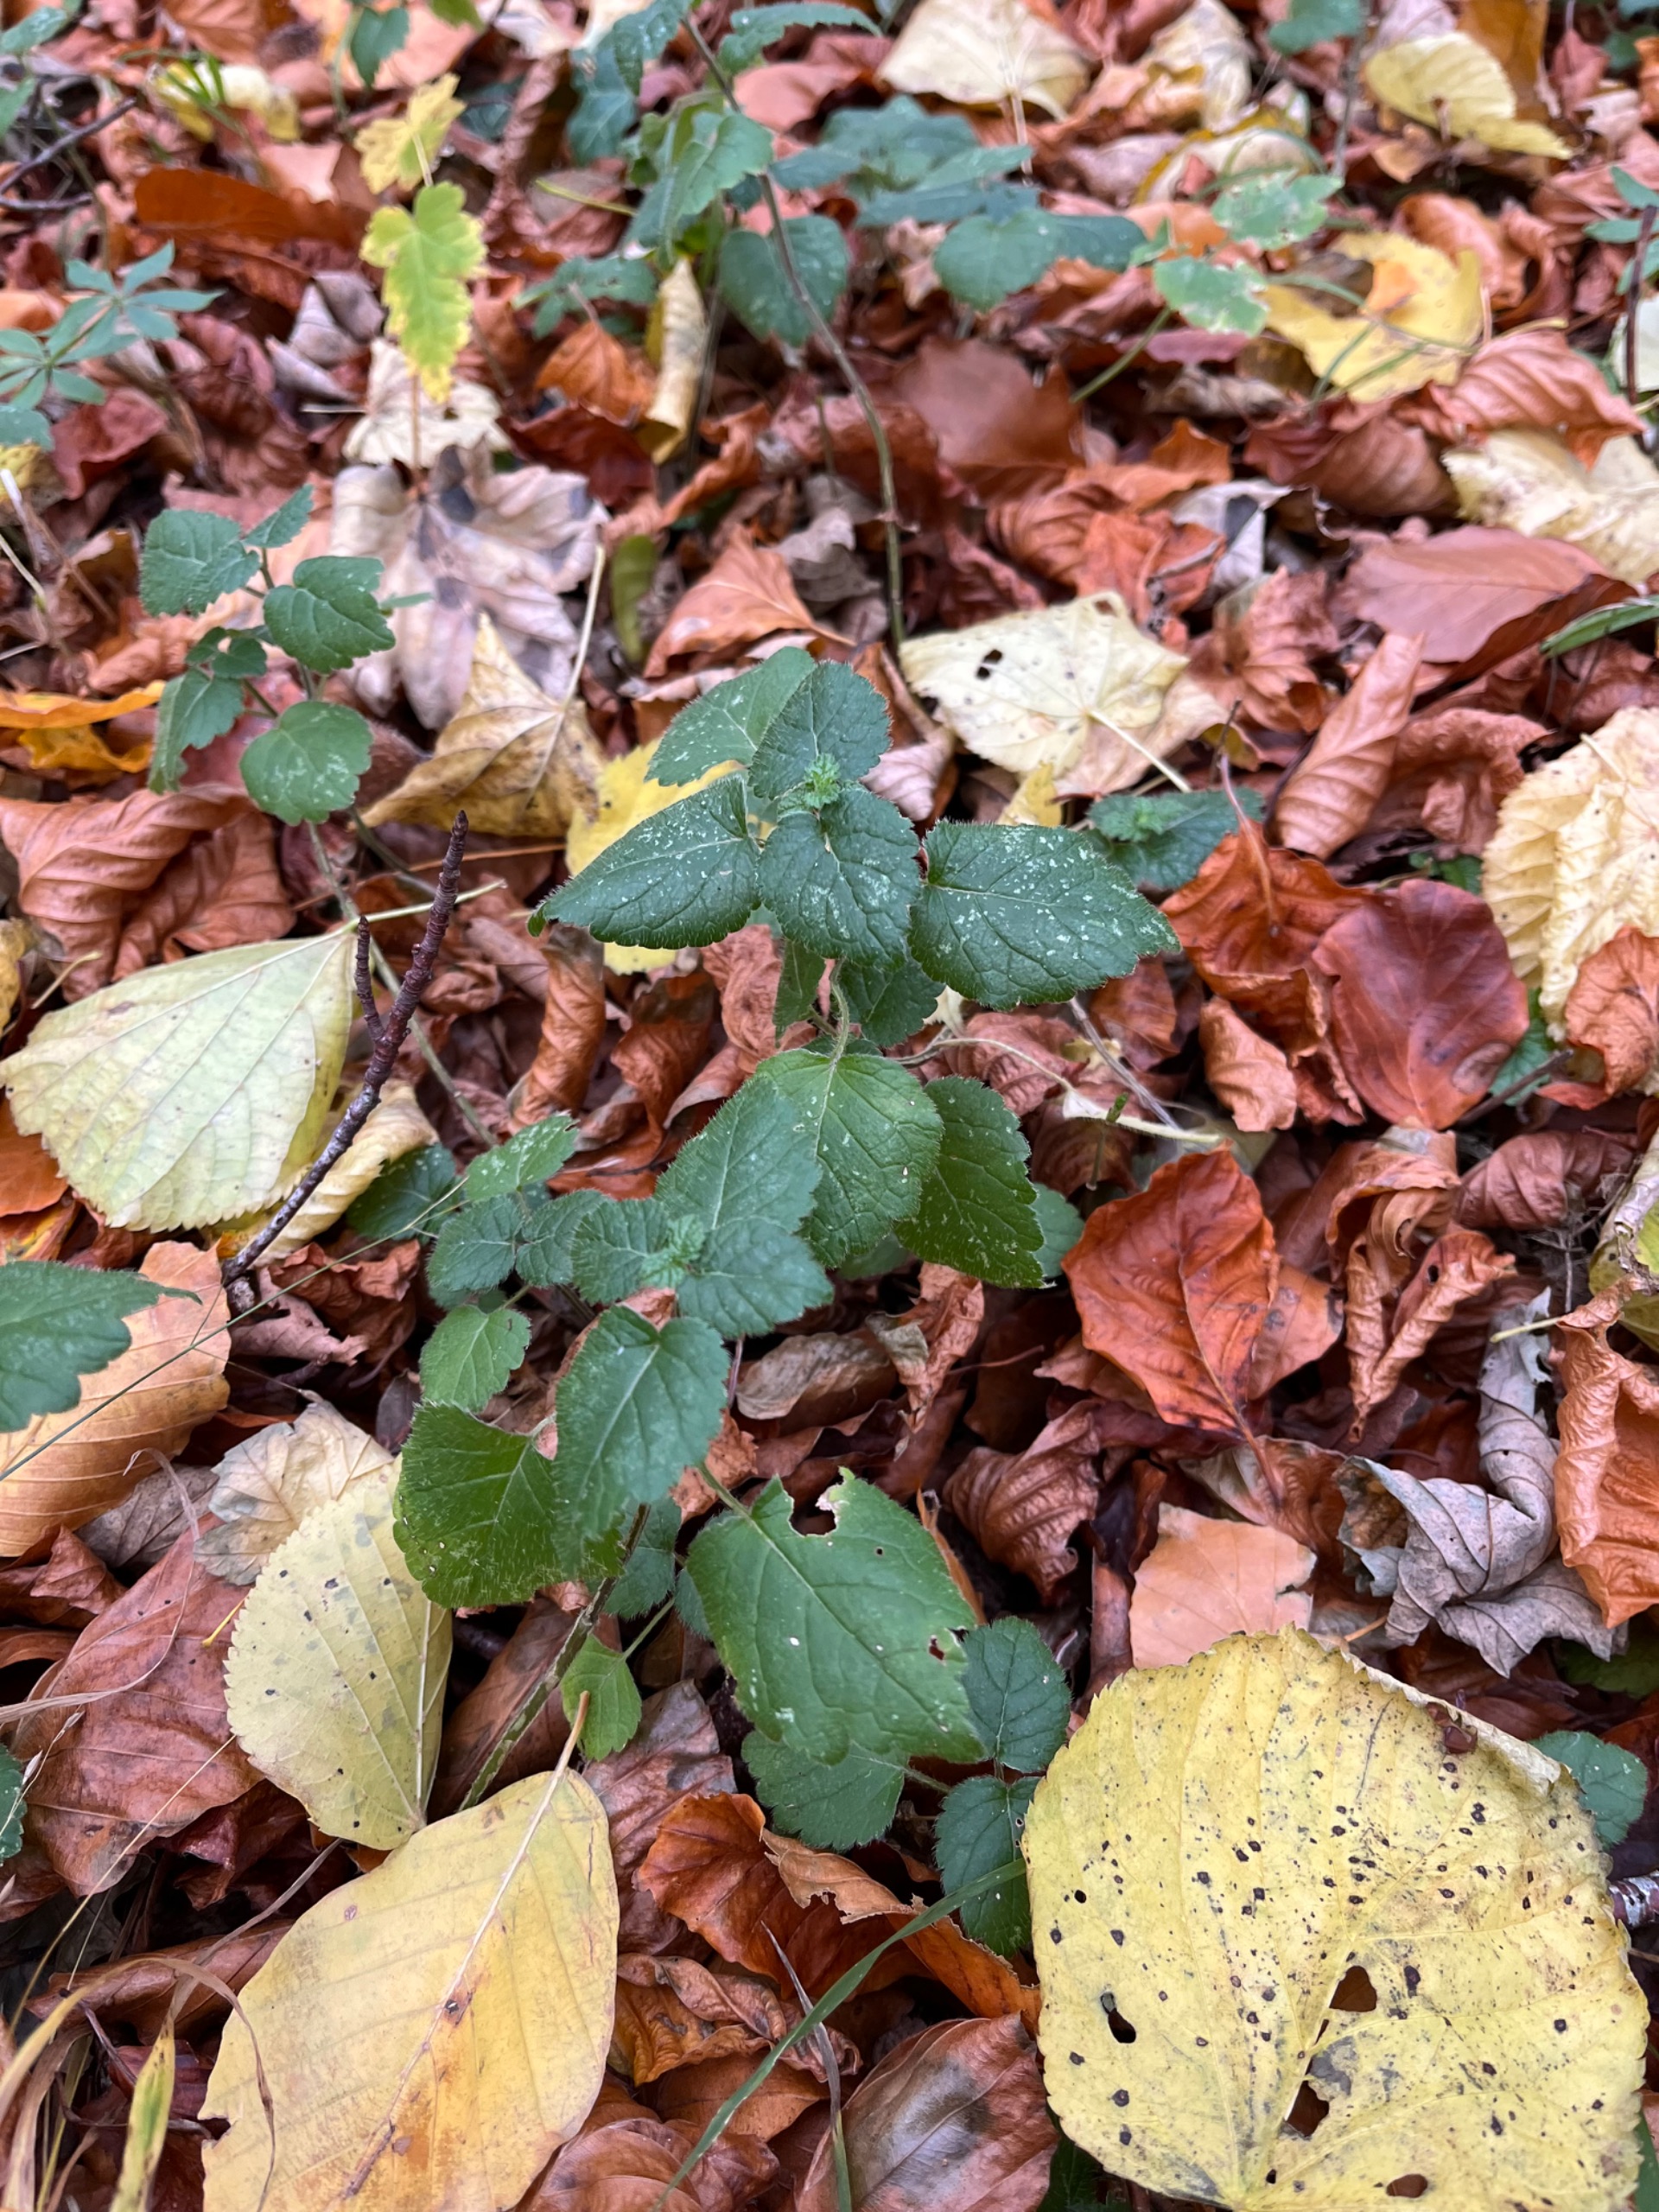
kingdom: Plantae
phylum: Tracheophyta
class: Magnoliopsida
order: Lamiales
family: Lamiaceae
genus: Lamium
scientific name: Lamium galeobdolon
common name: Guldnælde
